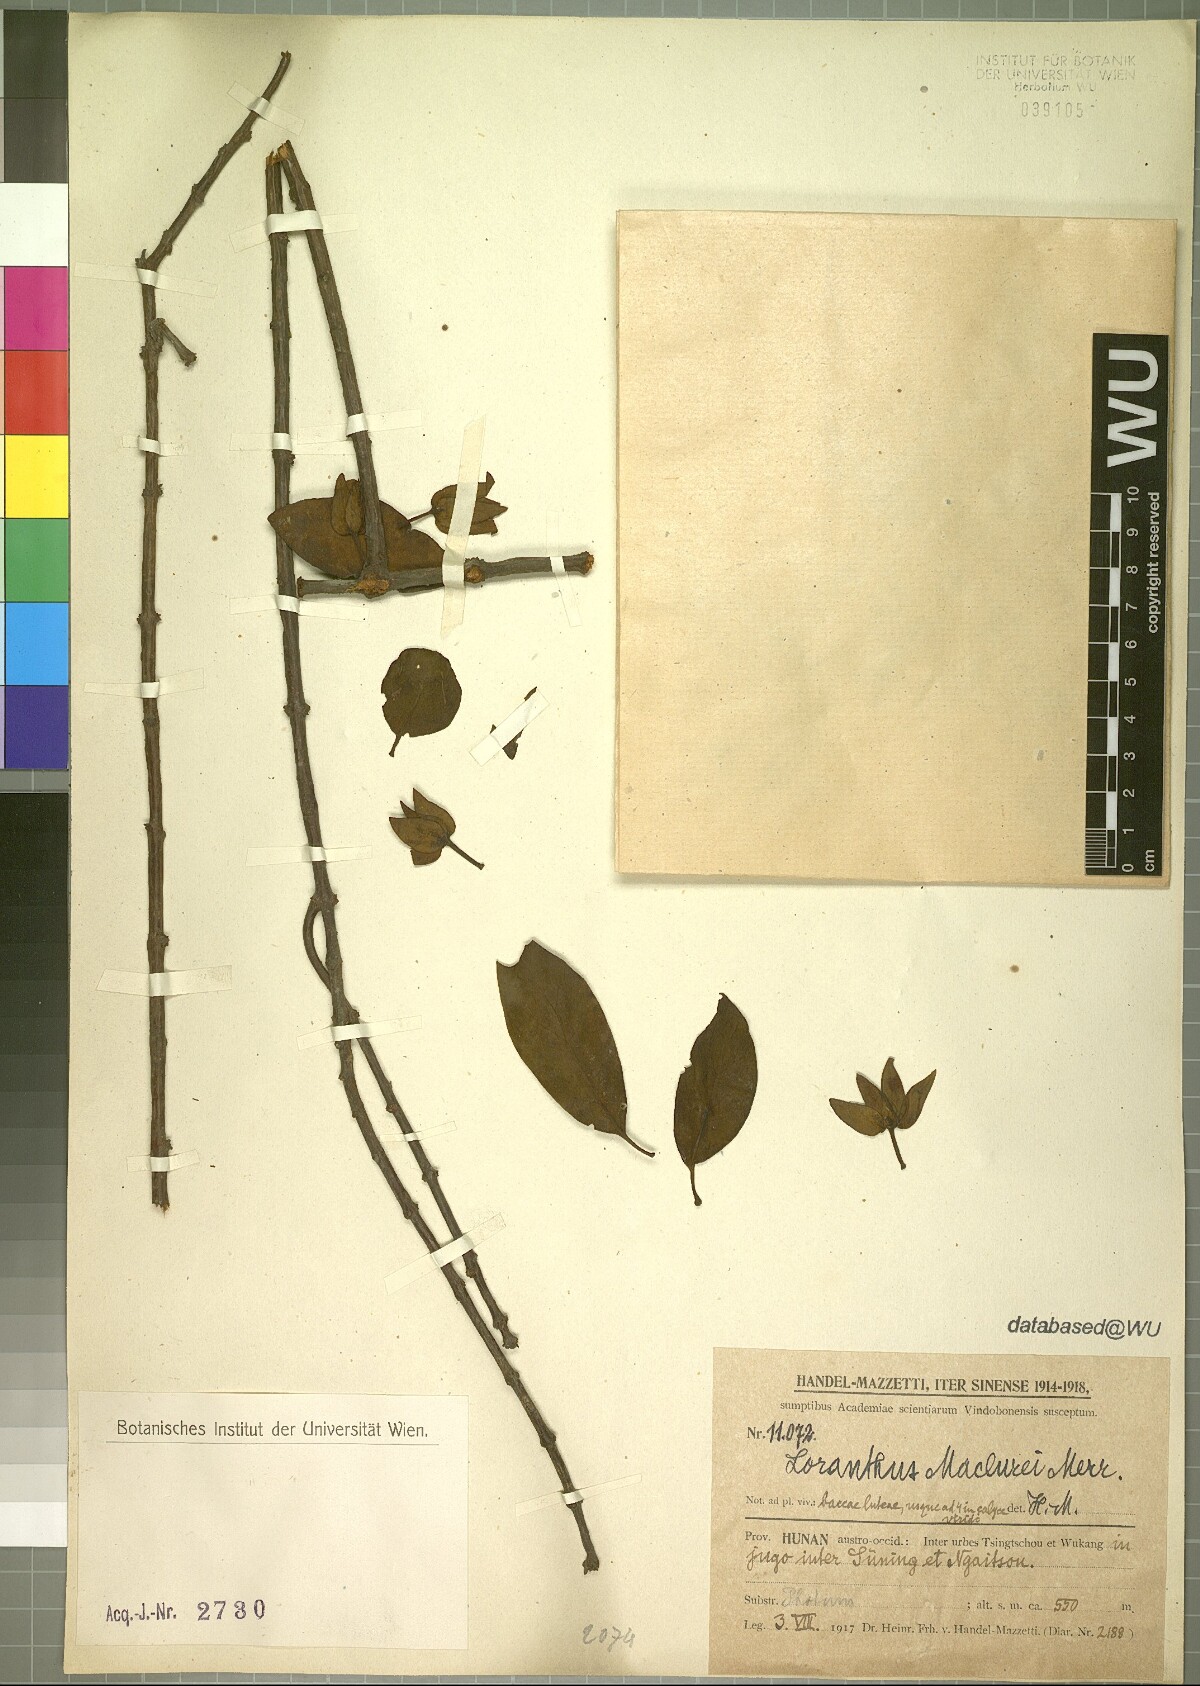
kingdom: Plantae
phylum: Tracheophyta
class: Magnoliopsida
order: Santalales
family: Loranthaceae
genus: Tolypanthus
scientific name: Tolypanthus maclurei
